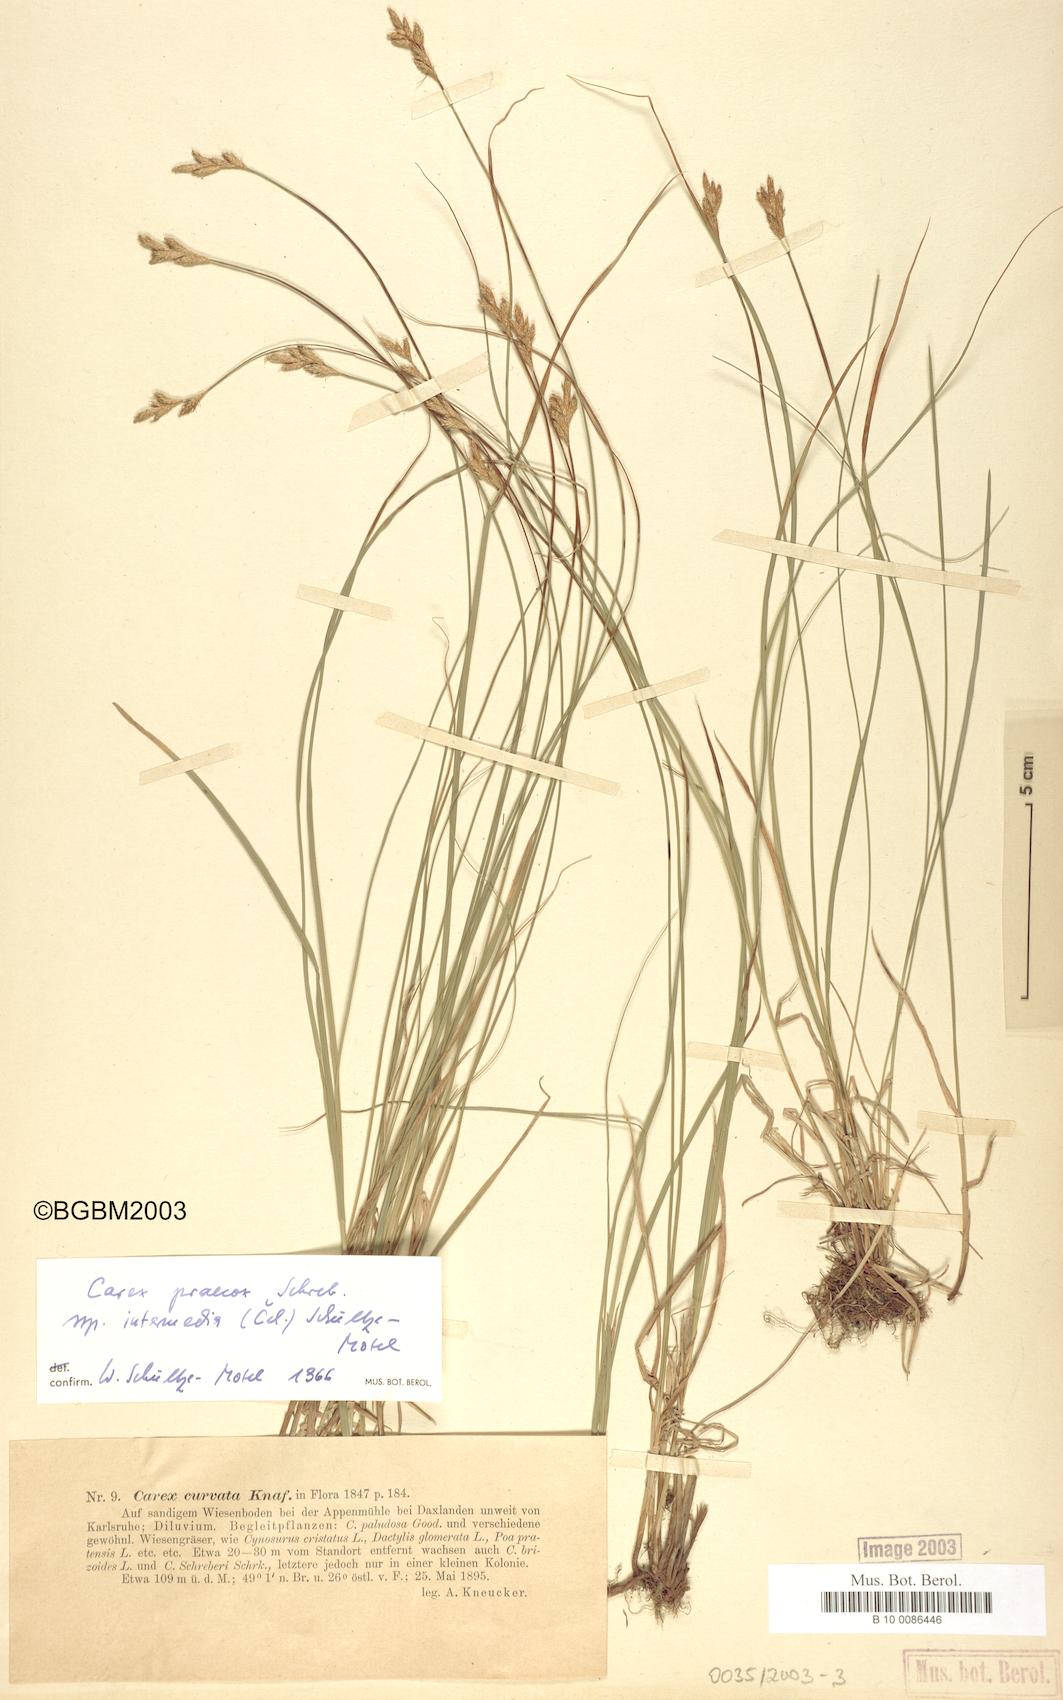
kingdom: Plantae
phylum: Tracheophyta
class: Liliopsida
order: Poales
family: Cyperaceae
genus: Carex
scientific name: Carex curvata
